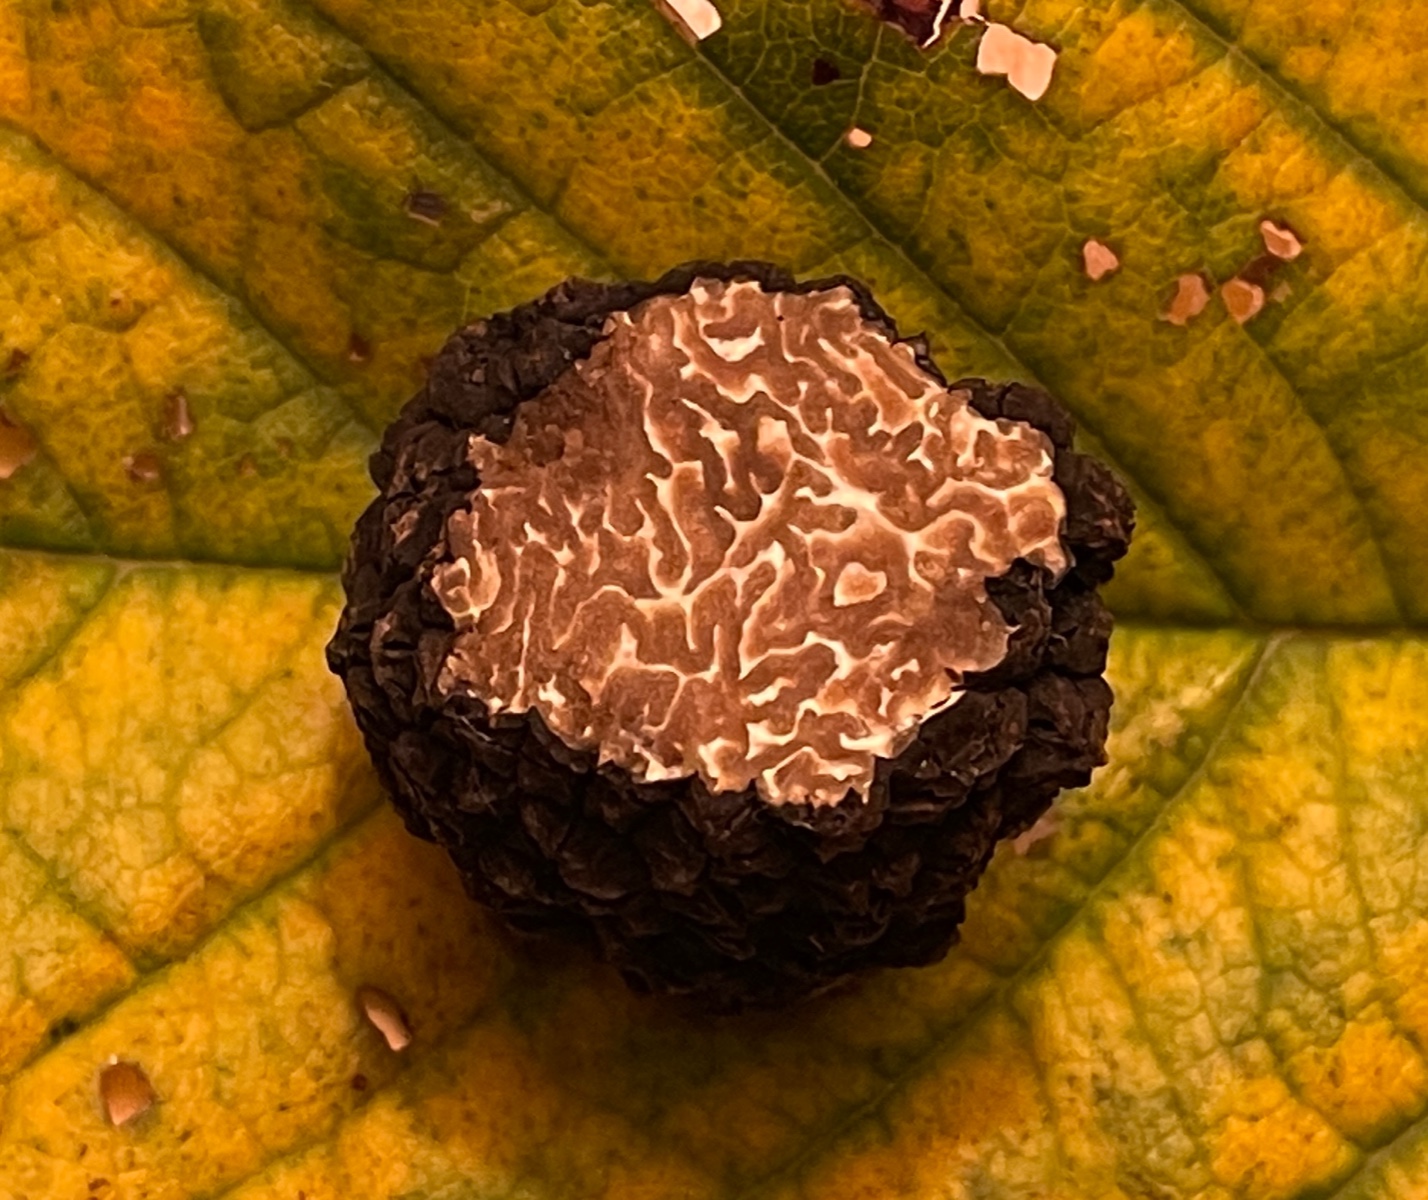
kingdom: Fungi
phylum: Ascomycota
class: Pezizomycetes
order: Pezizales
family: Tuberaceae
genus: Tuber
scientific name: Tuber aestivum
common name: sommer-trøffel
